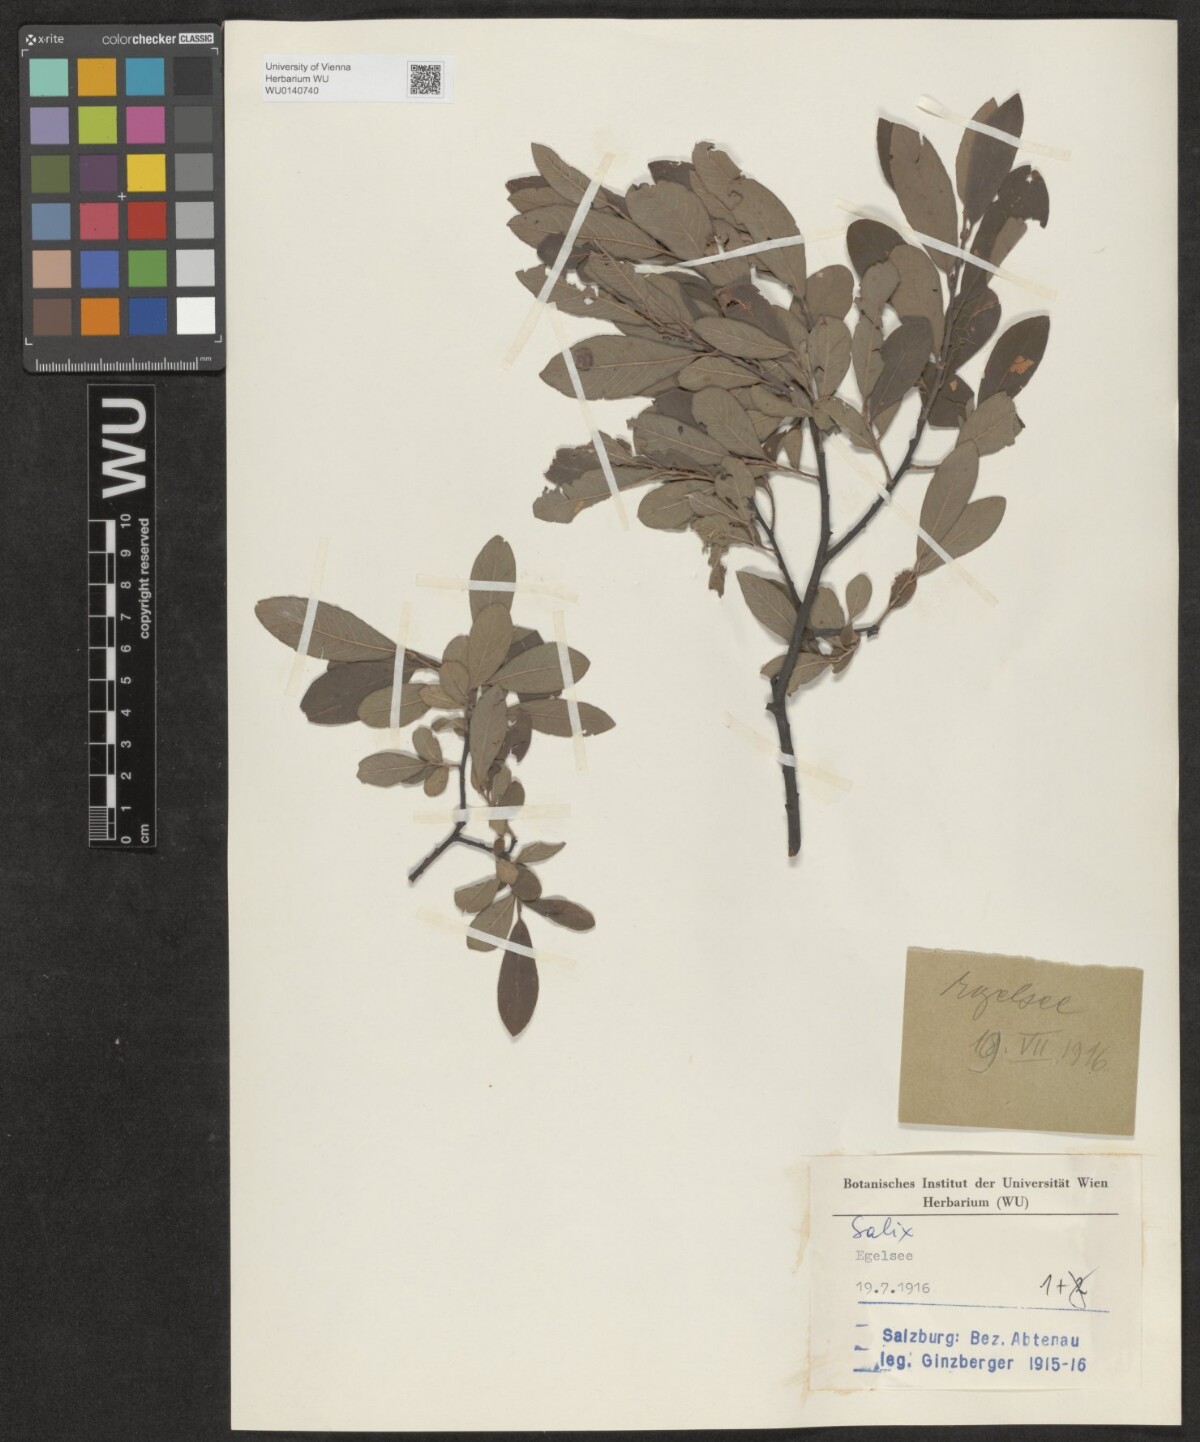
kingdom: Plantae
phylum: Tracheophyta
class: Magnoliopsida
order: Malpighiales
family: Salicaceae
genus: Salix
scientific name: Salix
